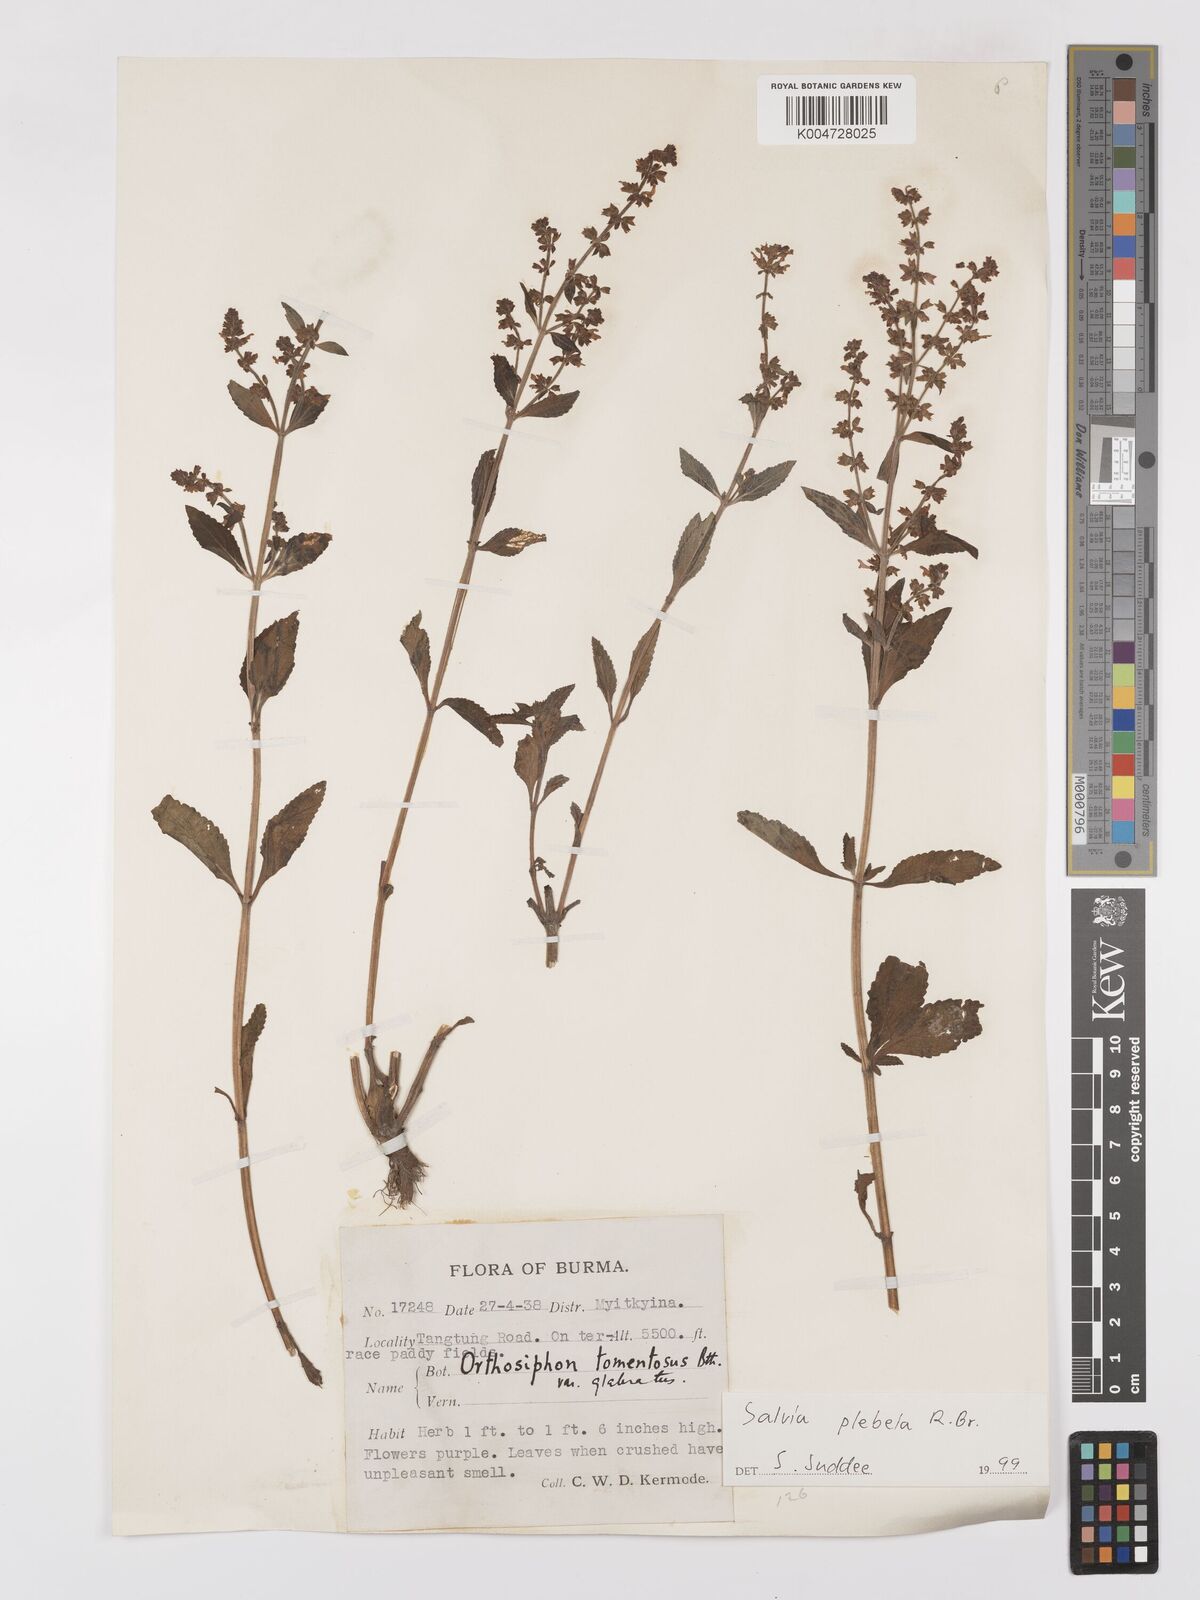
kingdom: Plantae
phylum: Tracheophyta
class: Magnoliopsida
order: Lamiales
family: Lamiaceae
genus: Salvia
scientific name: Salvia plebeia
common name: Australian sage
